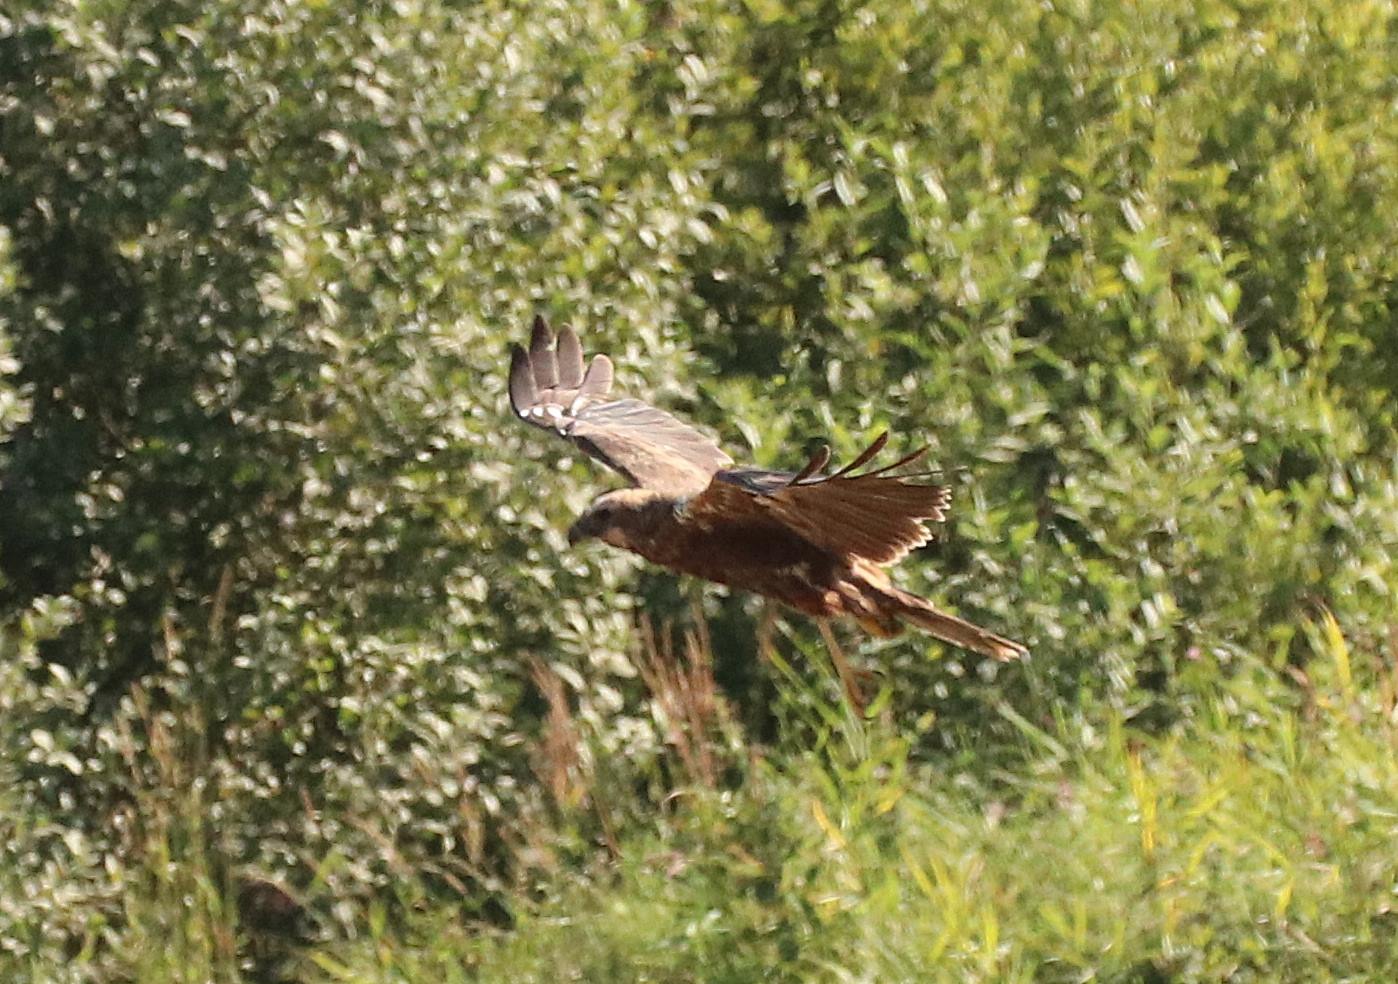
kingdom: Animalia
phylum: Chordata
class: Aves
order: Accipitriformes
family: Accipitridae
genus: Circus
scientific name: Circus aeruginosus
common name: Rørhøg
